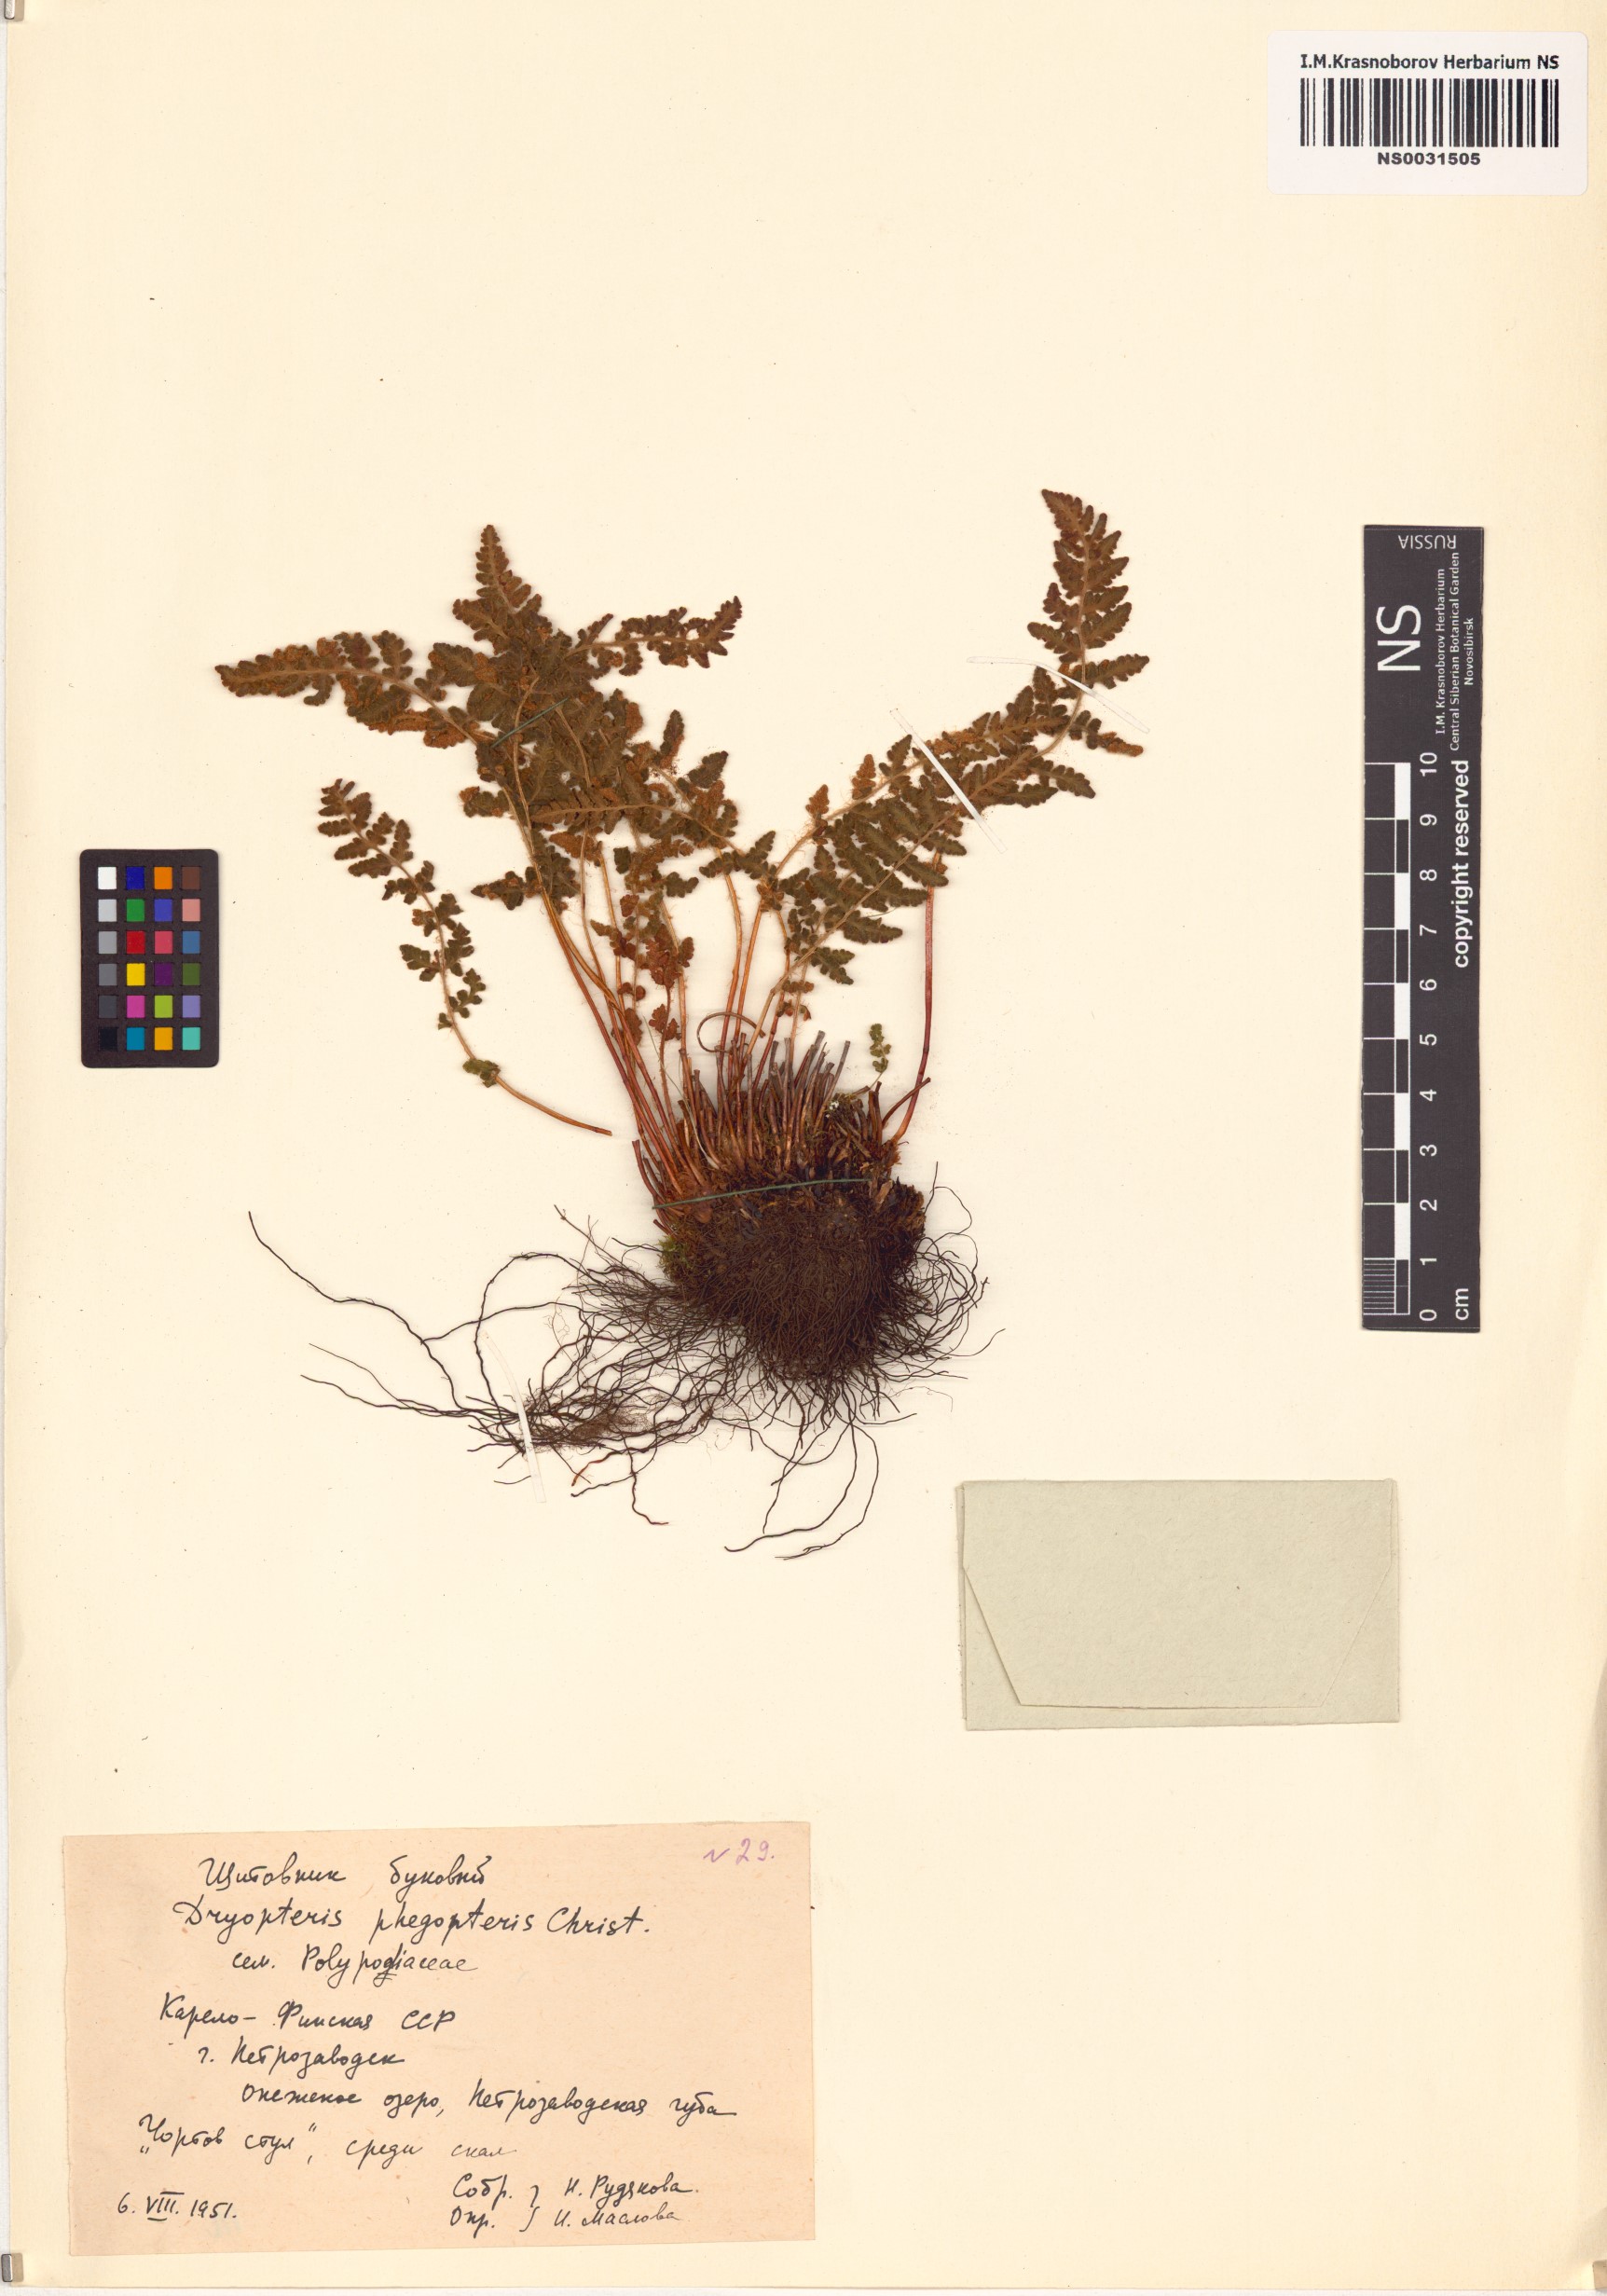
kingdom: Plantae
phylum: Tracheophyta
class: Polypodiopsida
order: Polypodiales
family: Thelypteridaceae
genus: Phegopteris
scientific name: Phegopteris connectilis
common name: Beech fern
